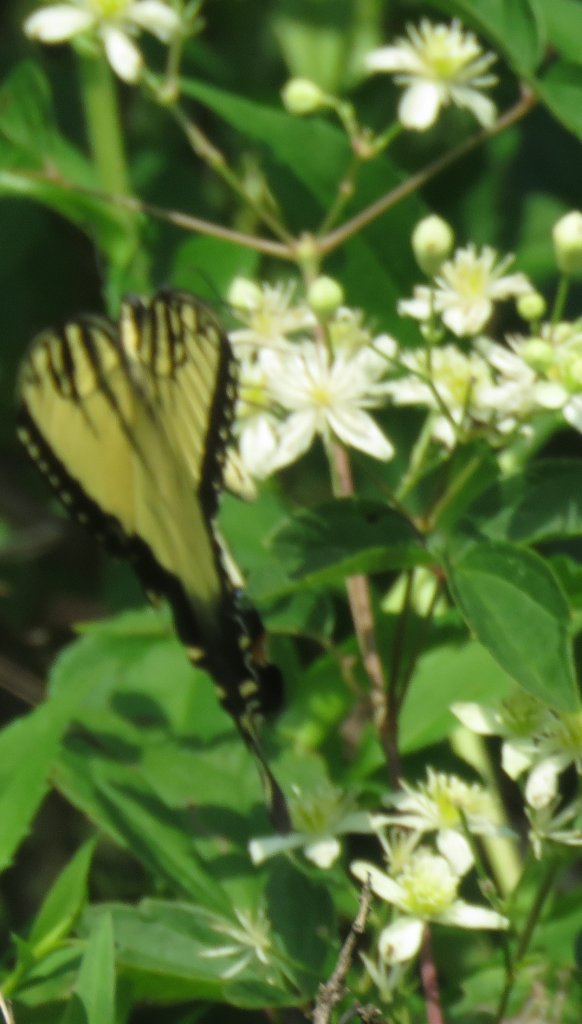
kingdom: Animalia
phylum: Arthropoda
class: Insecta
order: Lepidoptera
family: Papilionidae
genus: Pterourus
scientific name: Pterourus glaucus
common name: Eastern Tiger Swallowtail
